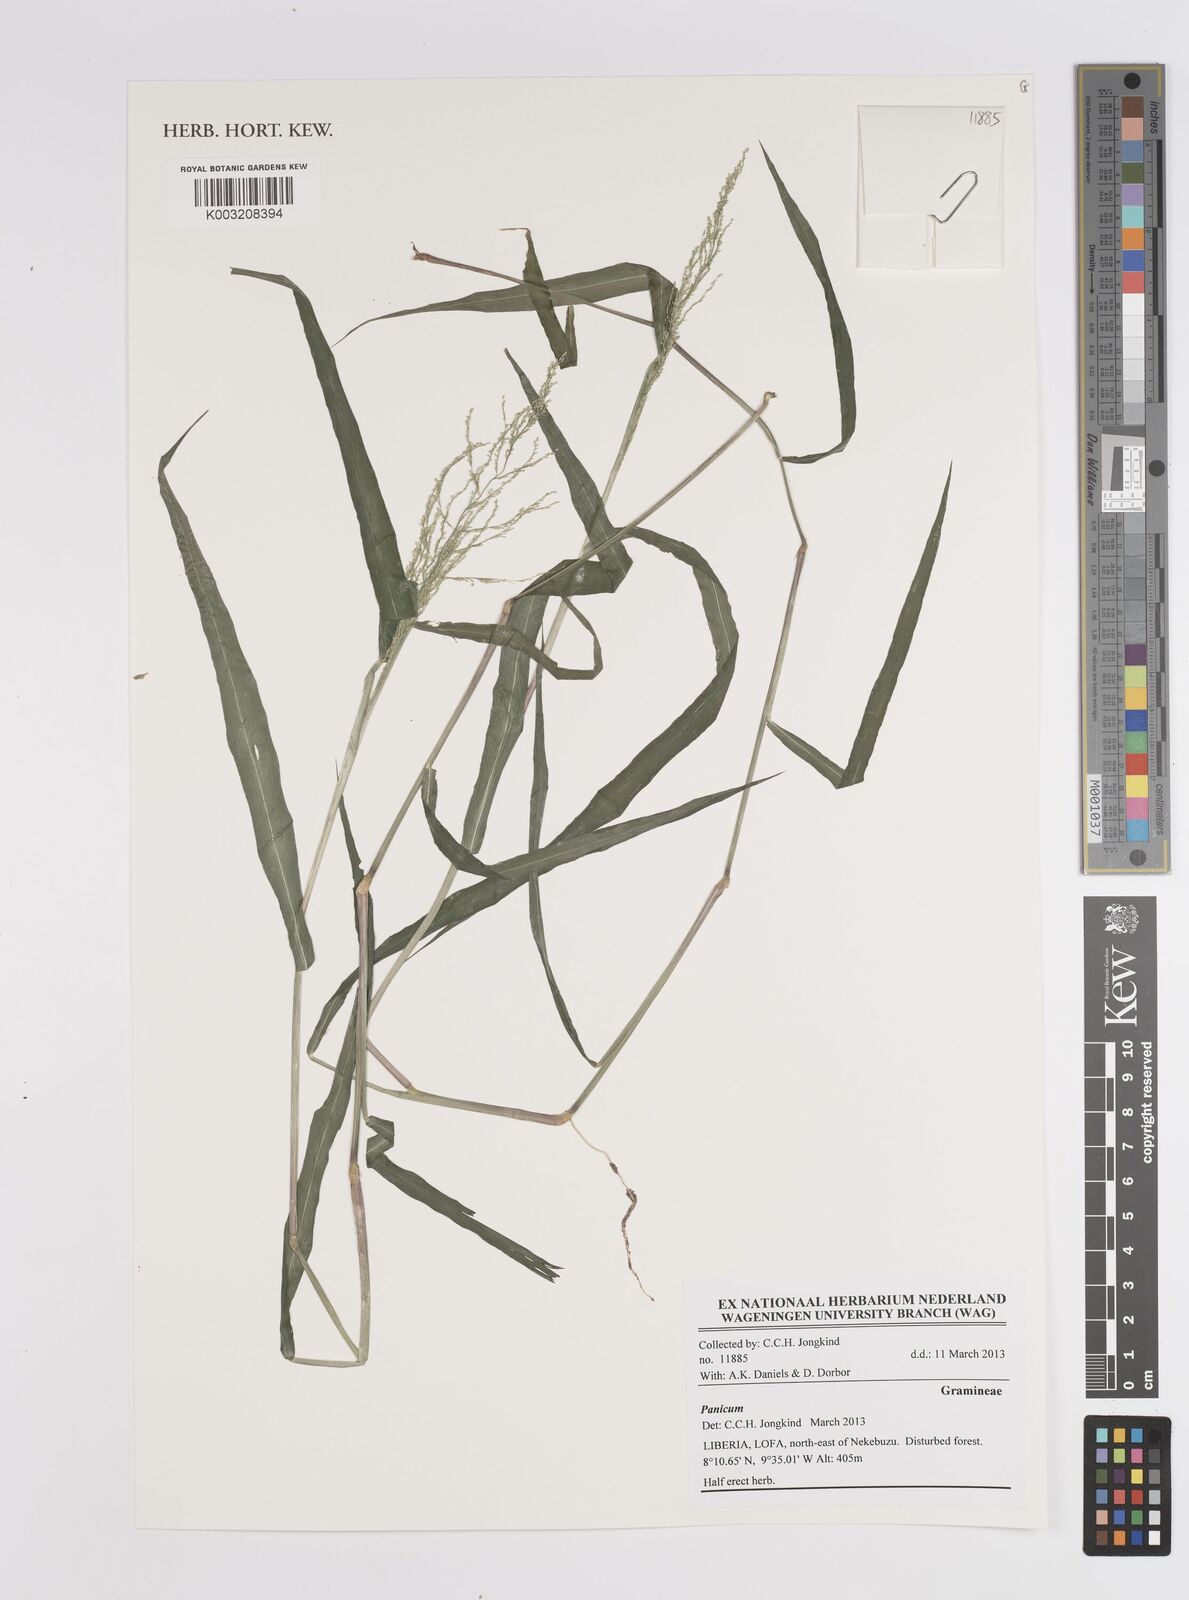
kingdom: Plantae
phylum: Tracheophyta
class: Liliopsida
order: Poales
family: Poaceae
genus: Panicum
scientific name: Panicum
